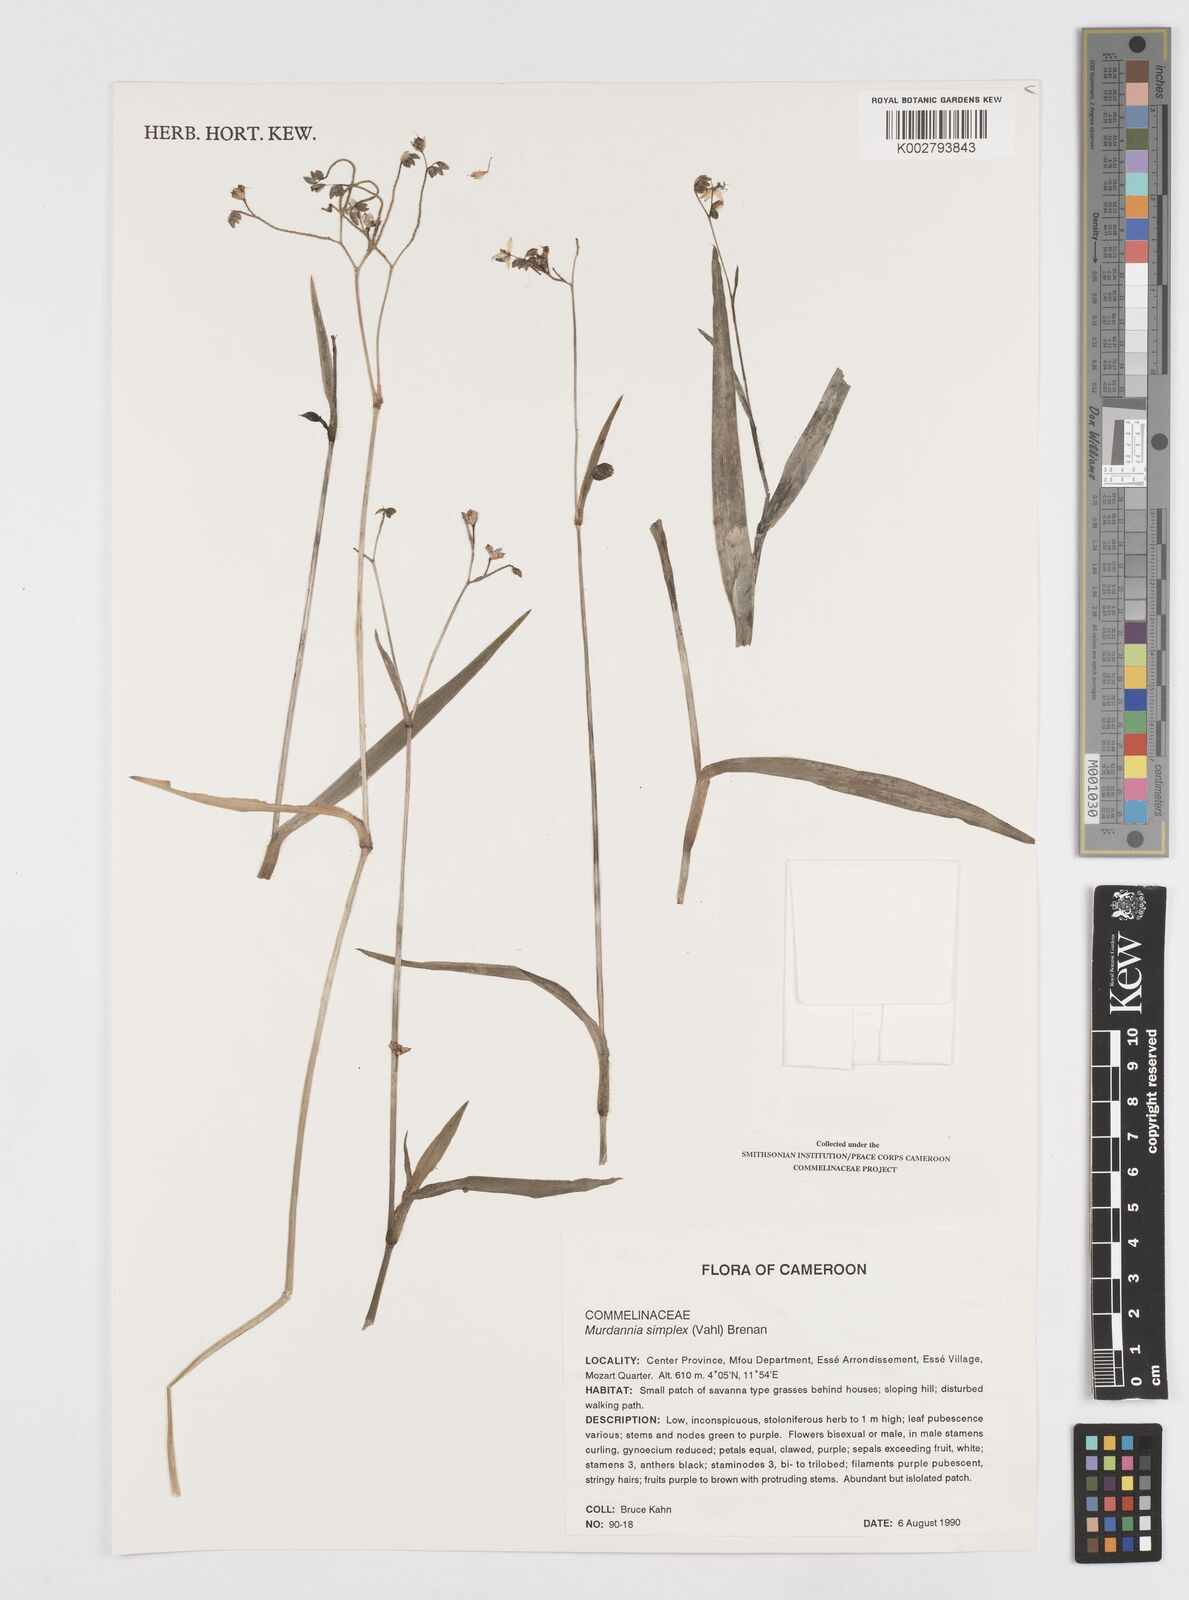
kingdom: Plantae
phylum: Tracheophyta
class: Liliopsida
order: Commelinales
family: Commelinaceae
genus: Murdannia
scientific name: Murdannia simplex
